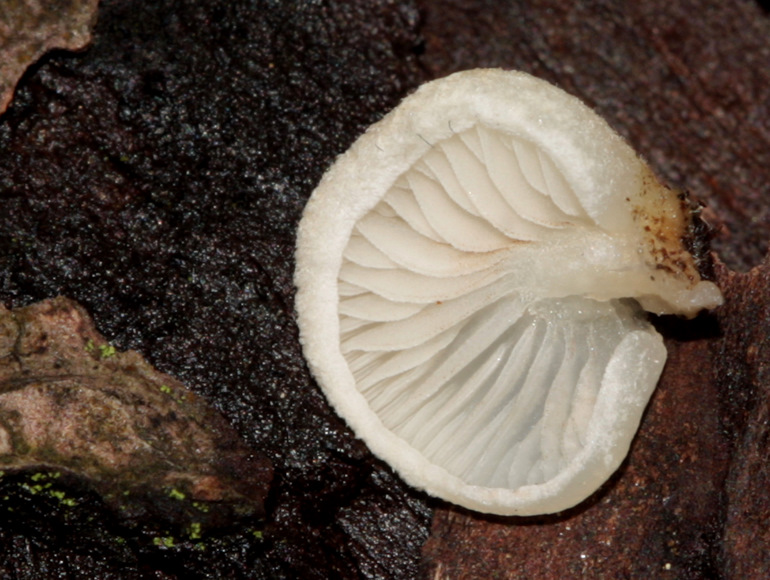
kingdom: Fungi
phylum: Basidiomycota
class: Agaricomycetes
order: Agaricales
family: Crepidotaceae
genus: Crepidotus
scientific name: Crepidotus mollis
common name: blød muslingesvamp
